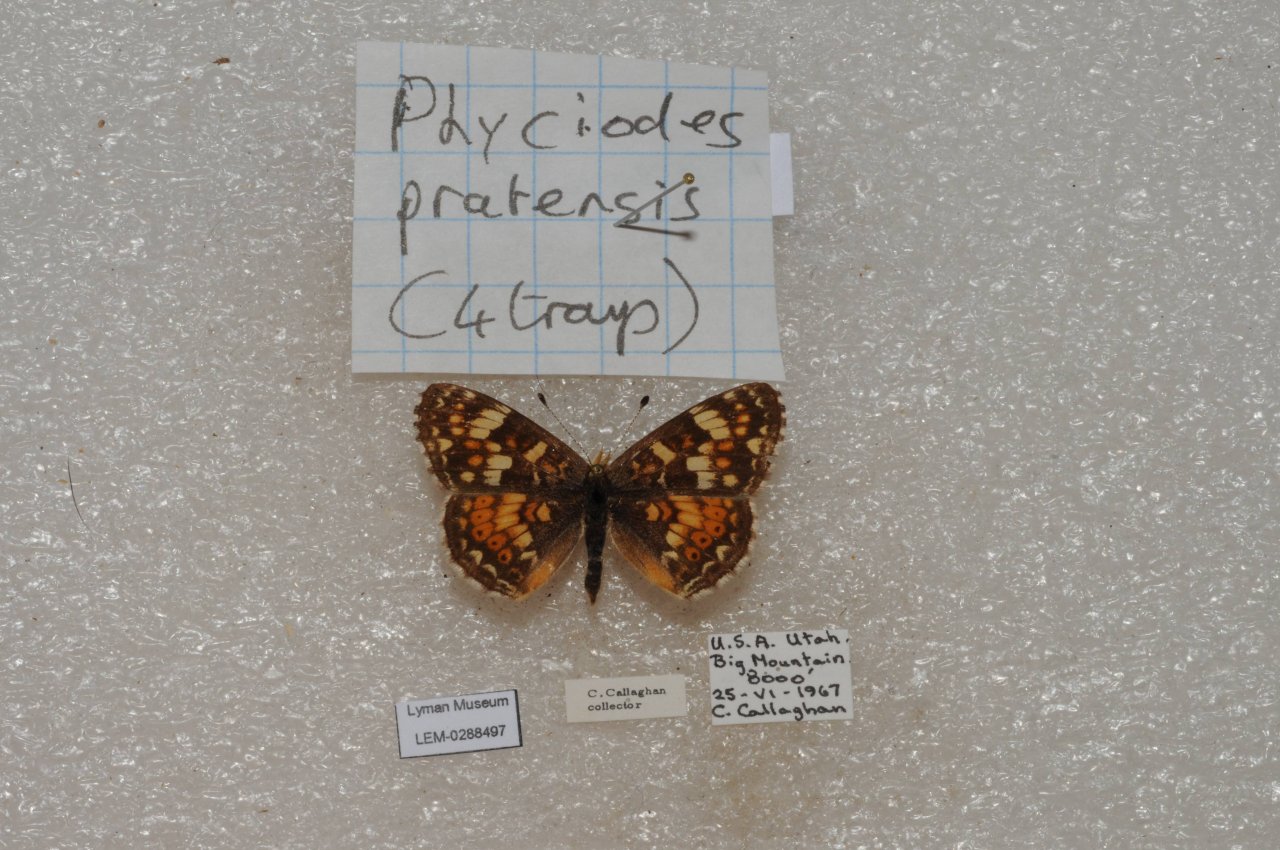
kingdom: Animalia
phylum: Arthropoda
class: Insecta
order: Lepidoptera
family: Nymphalidae
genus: Phyciodes
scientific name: Phyciodes tharos
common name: Field Crescent
